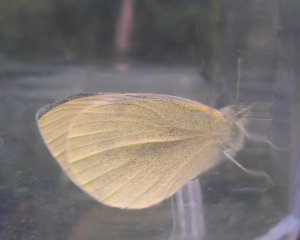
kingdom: Animalia
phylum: Arthropoda
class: Insecta
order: Lepidoptera
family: Pieridae
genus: Pieris
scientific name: Pieris rapae
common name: Cabbage White
